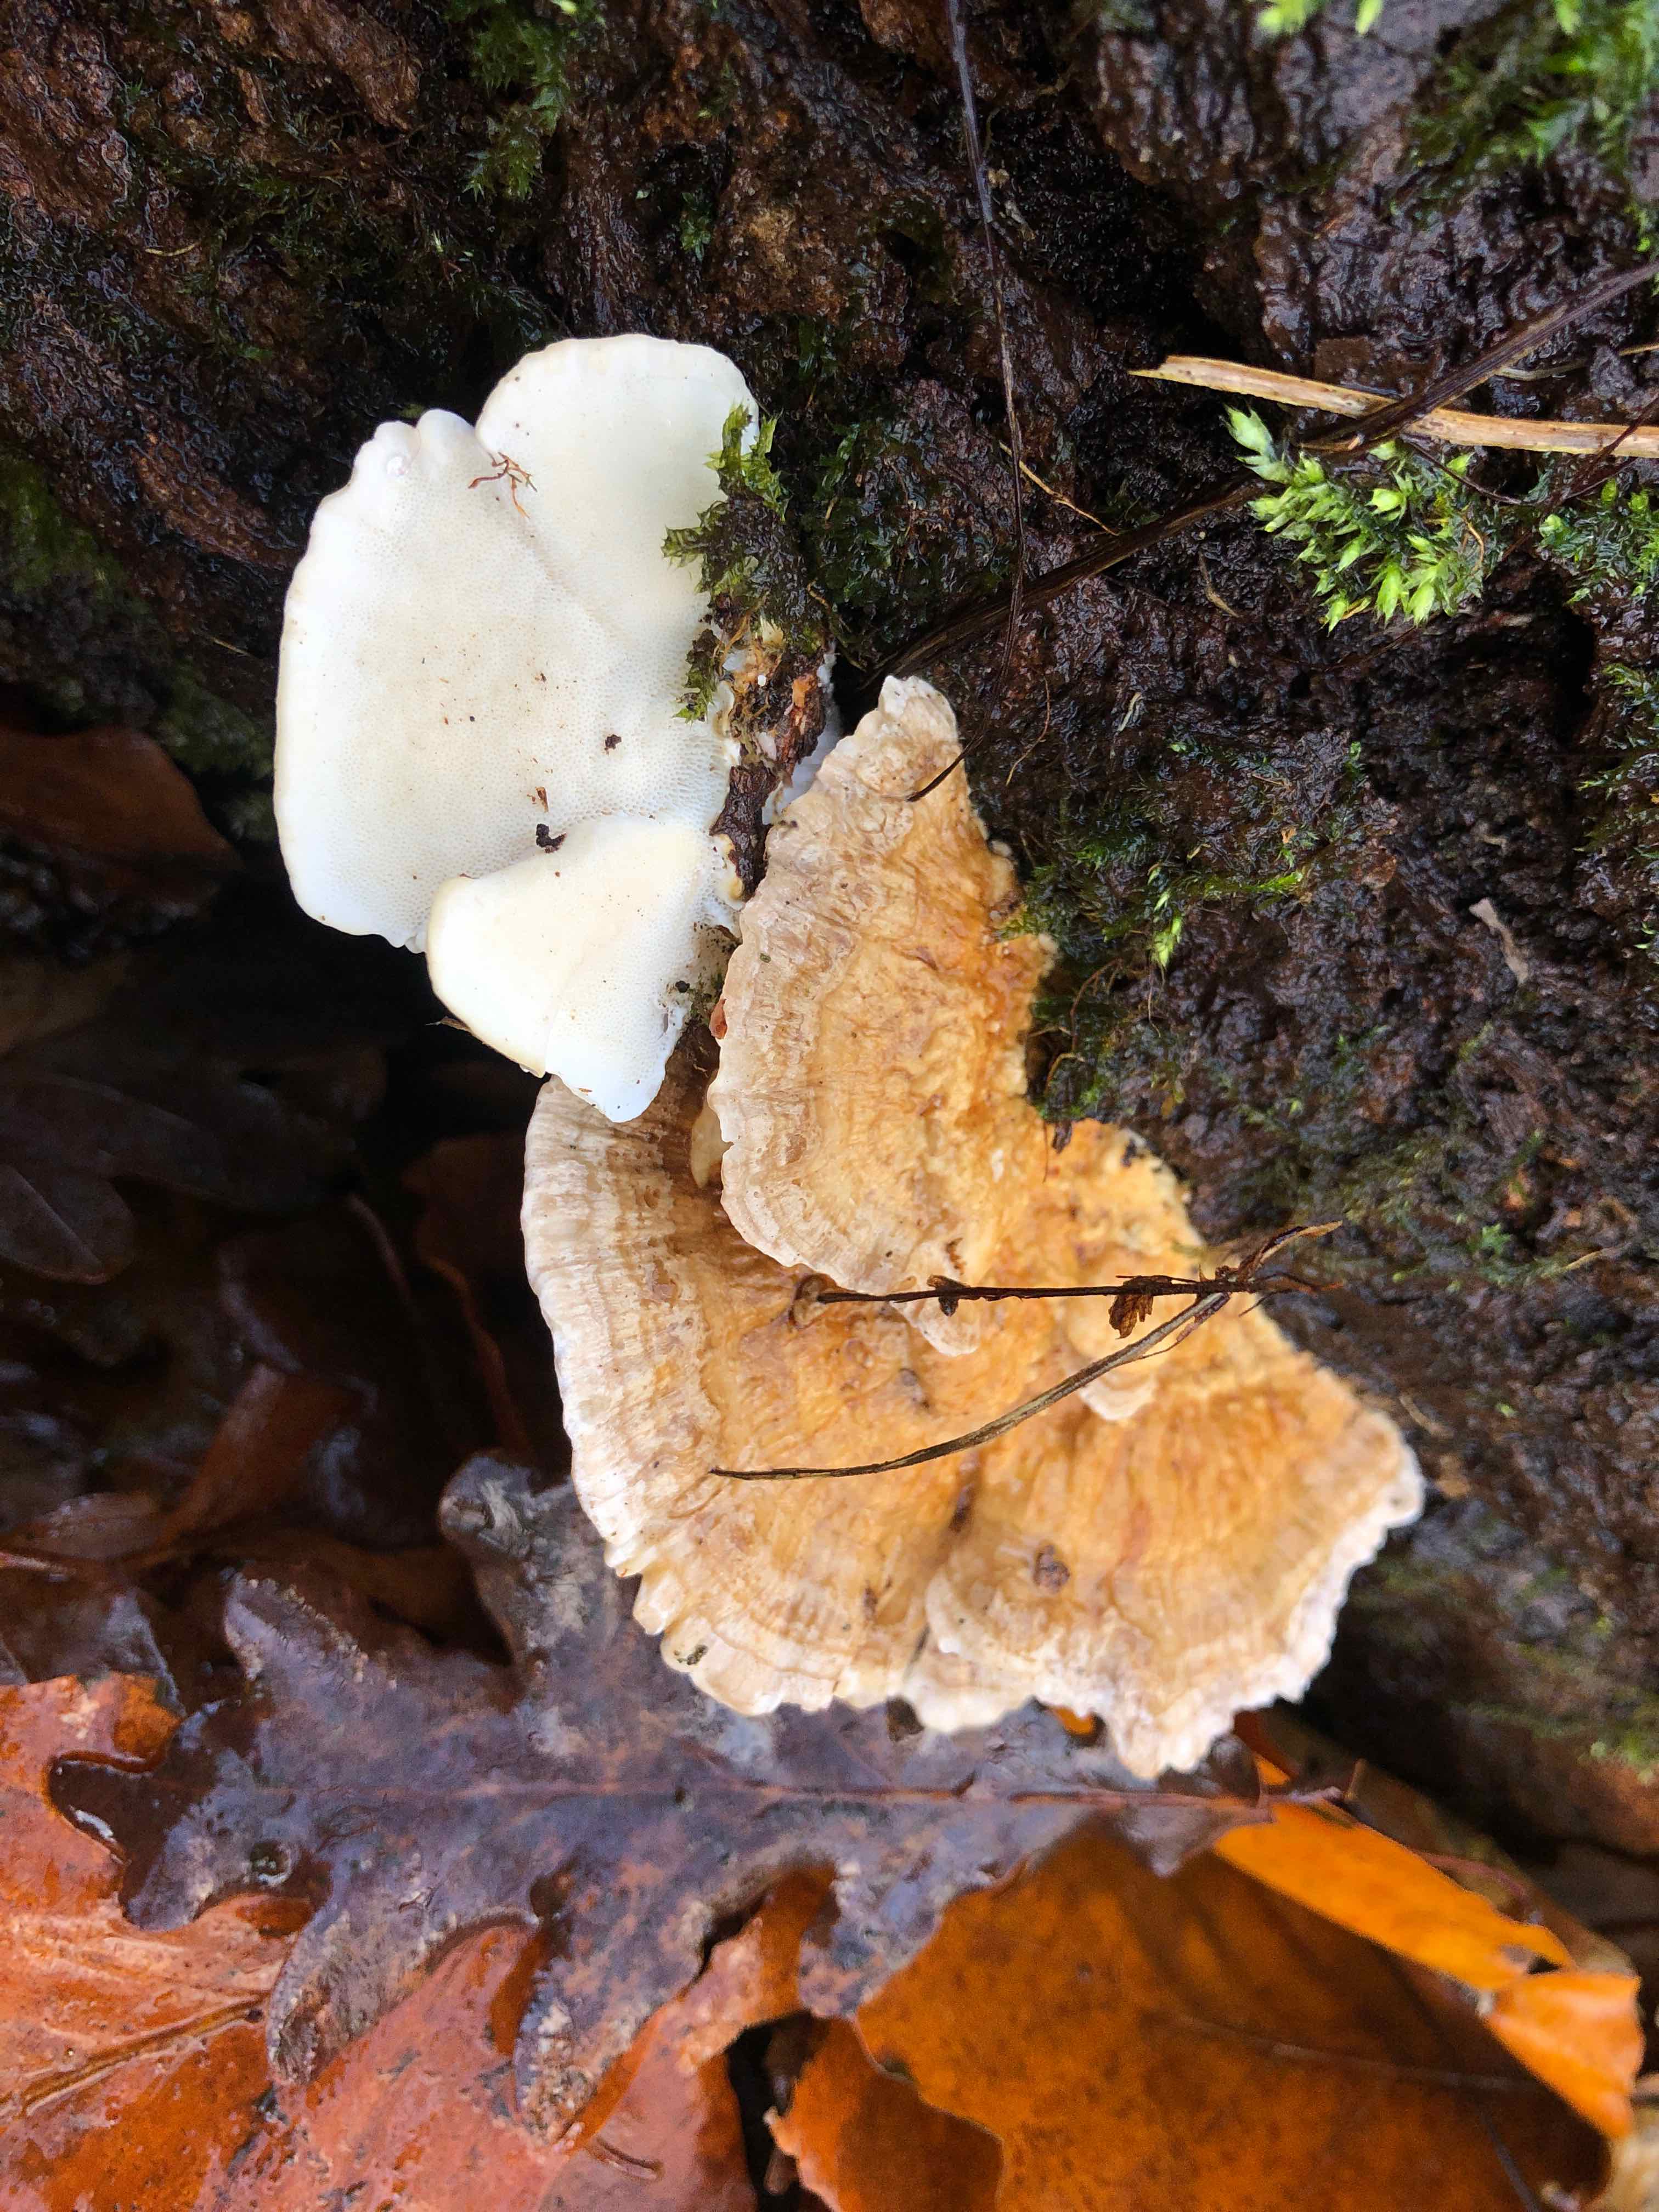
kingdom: Fungi
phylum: Basidiomycota
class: Agaricomycetes
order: Polyporales
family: Polyporaceae
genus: Trametes
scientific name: Trametes ochracea
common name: bæltet læderporesvamp
